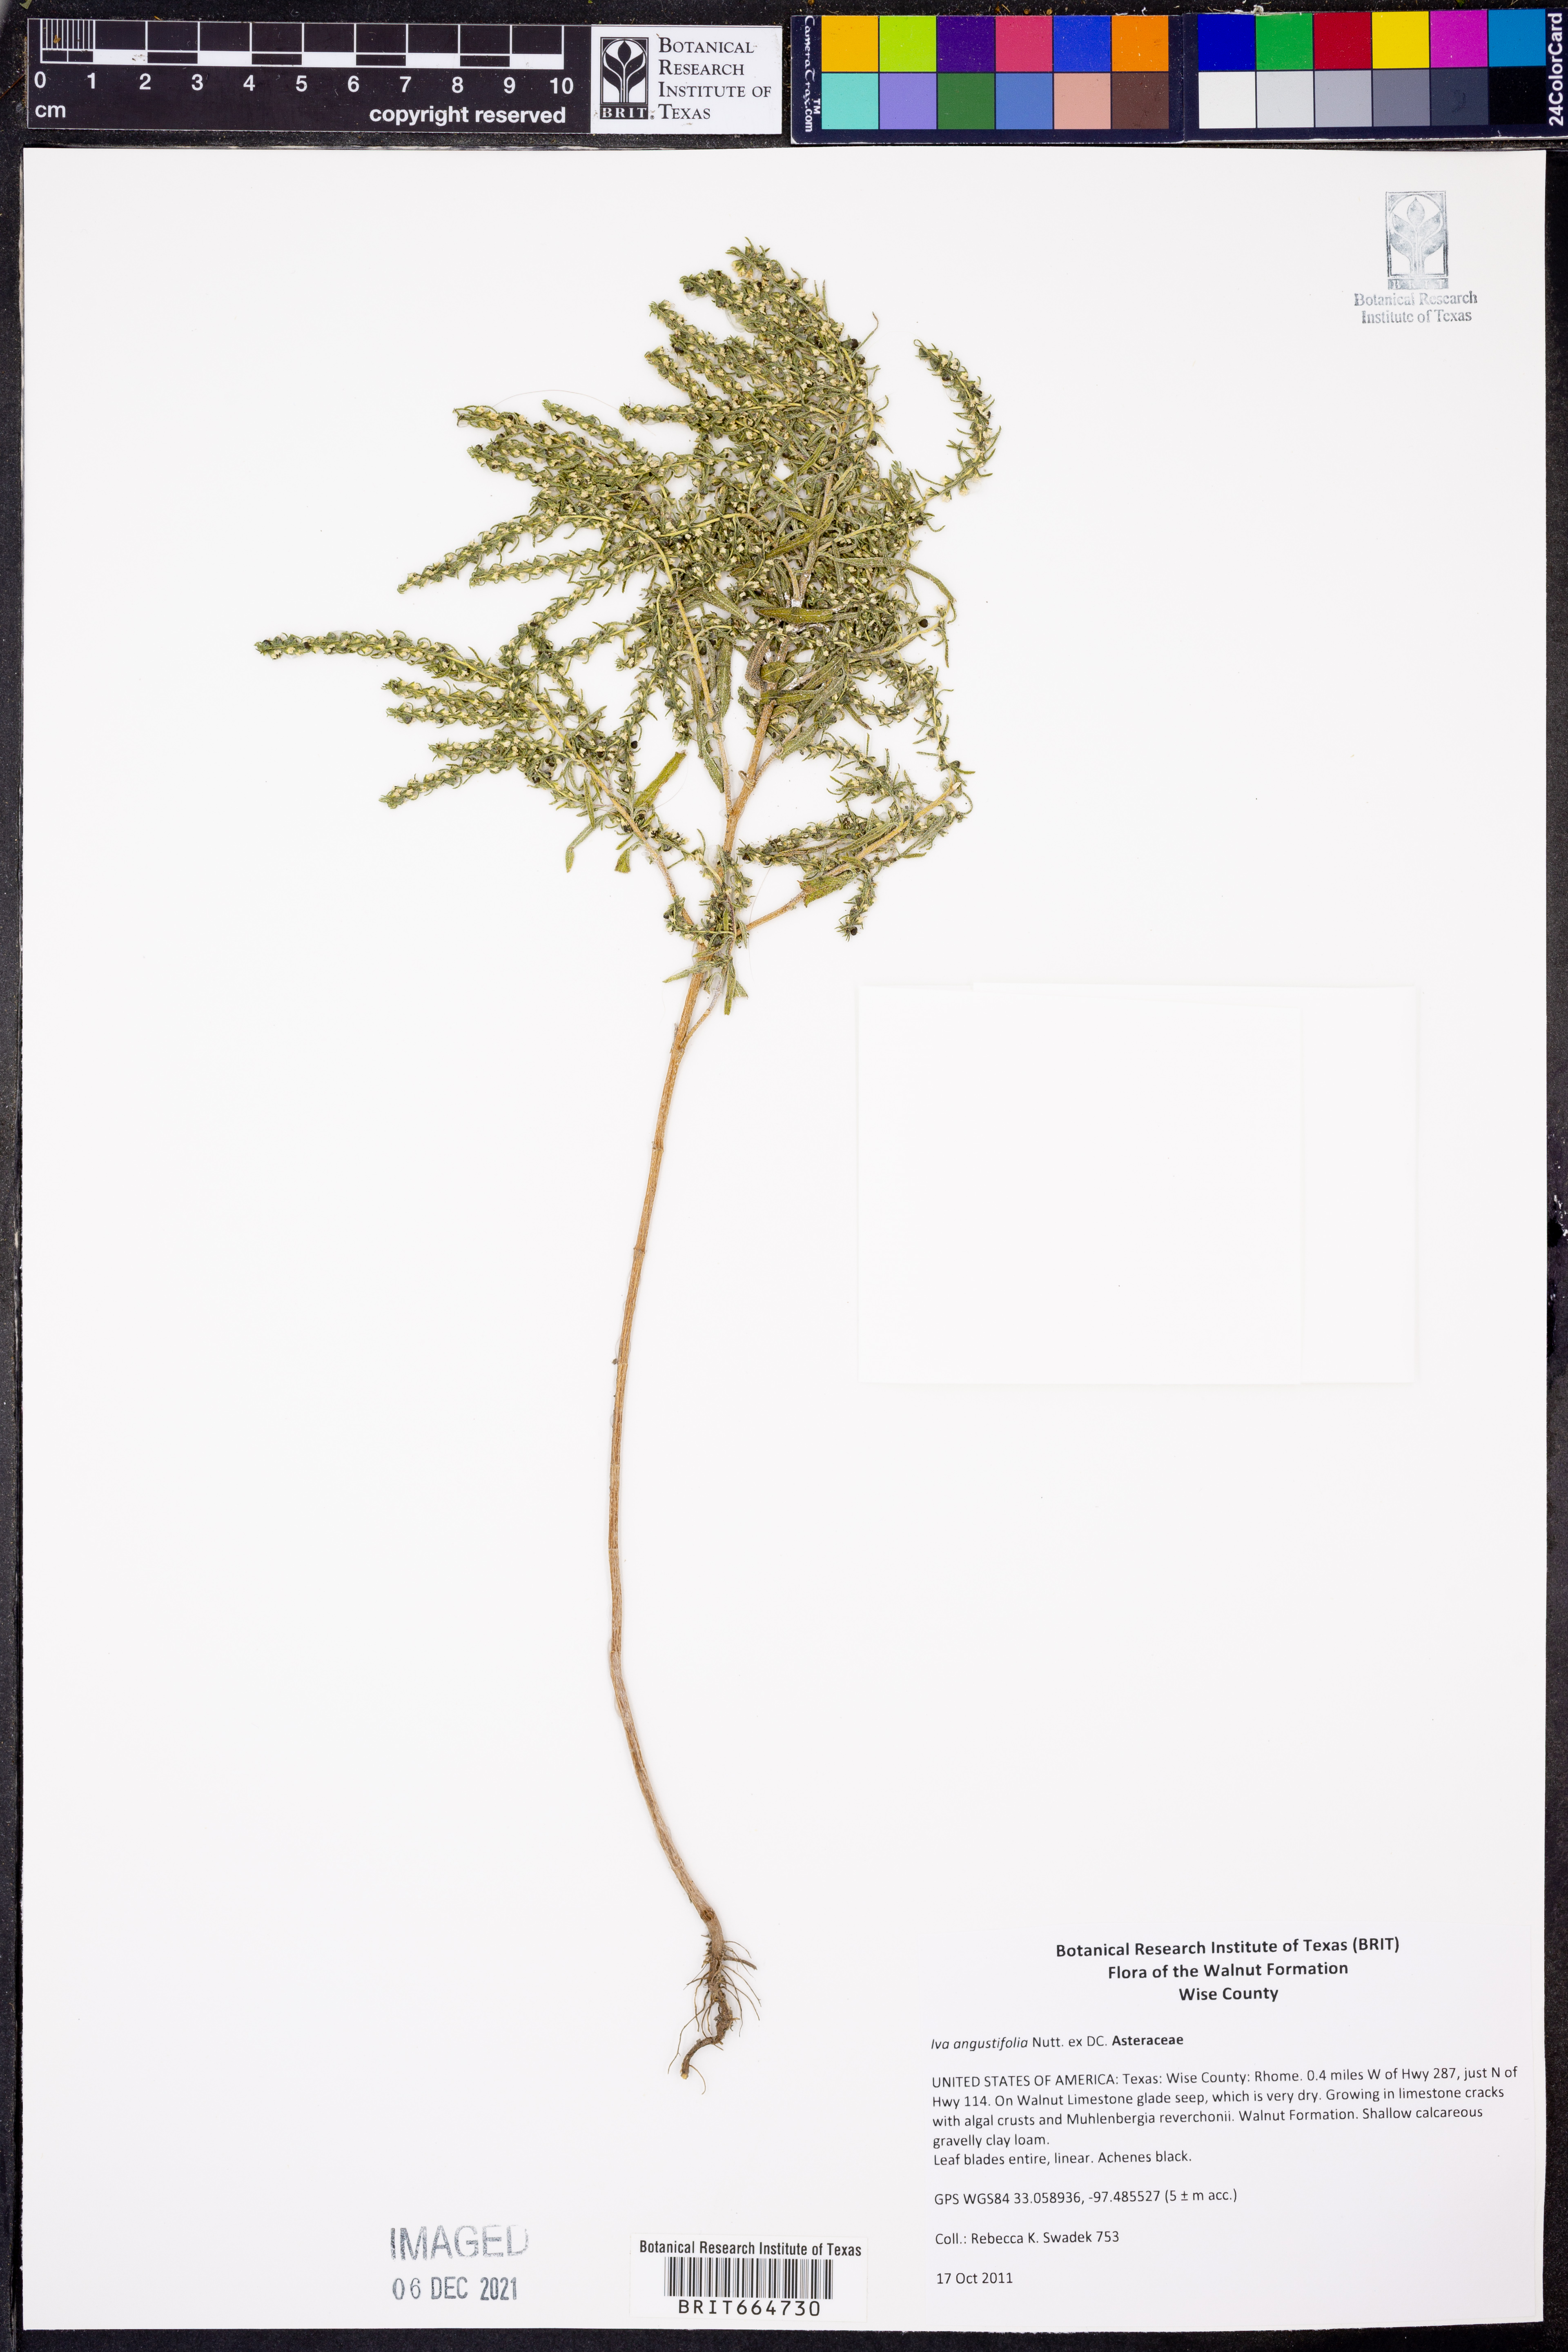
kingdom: Plantae
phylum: Tracheophyta
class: Magnoliopsida
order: Asterales
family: Asteraceae
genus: Iva
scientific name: Iva asperifolia
